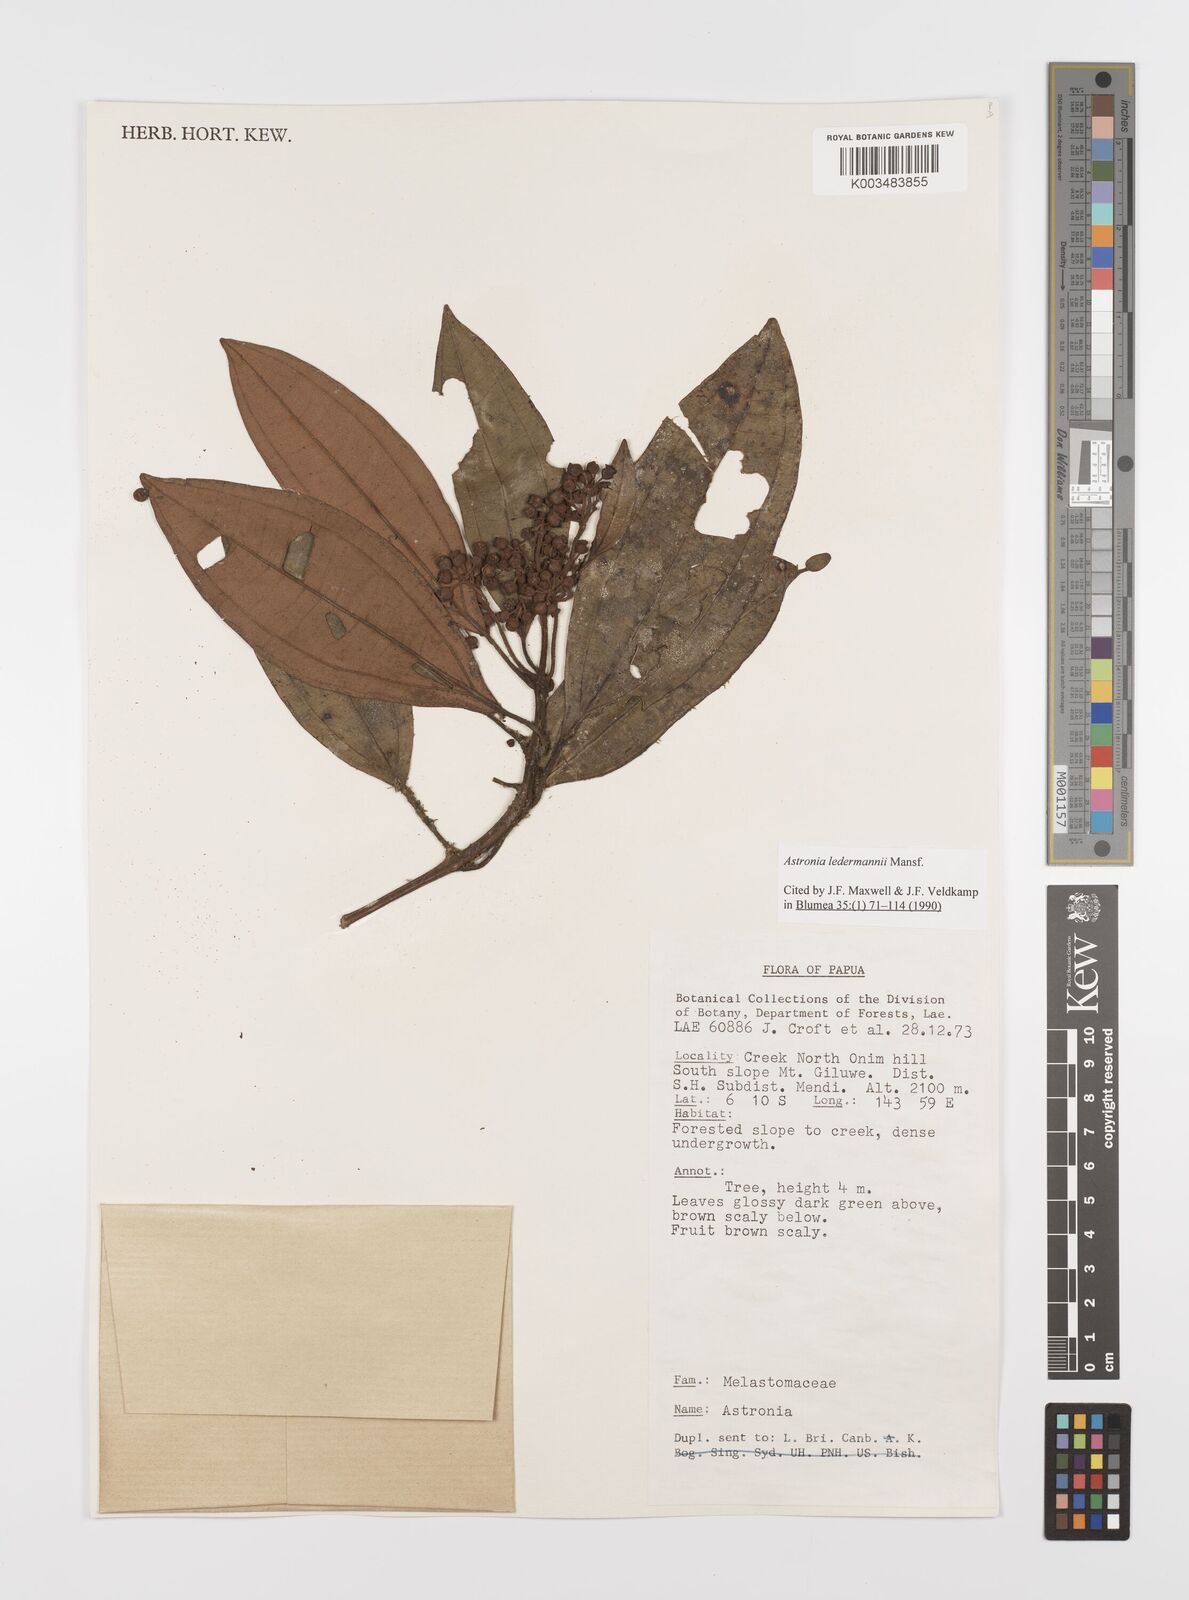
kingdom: Plantae
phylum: Tracheophyta
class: Magnoliopsida
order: Myrtales
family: Melastomataceae
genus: Astronia
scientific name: Astronia ledermannii
